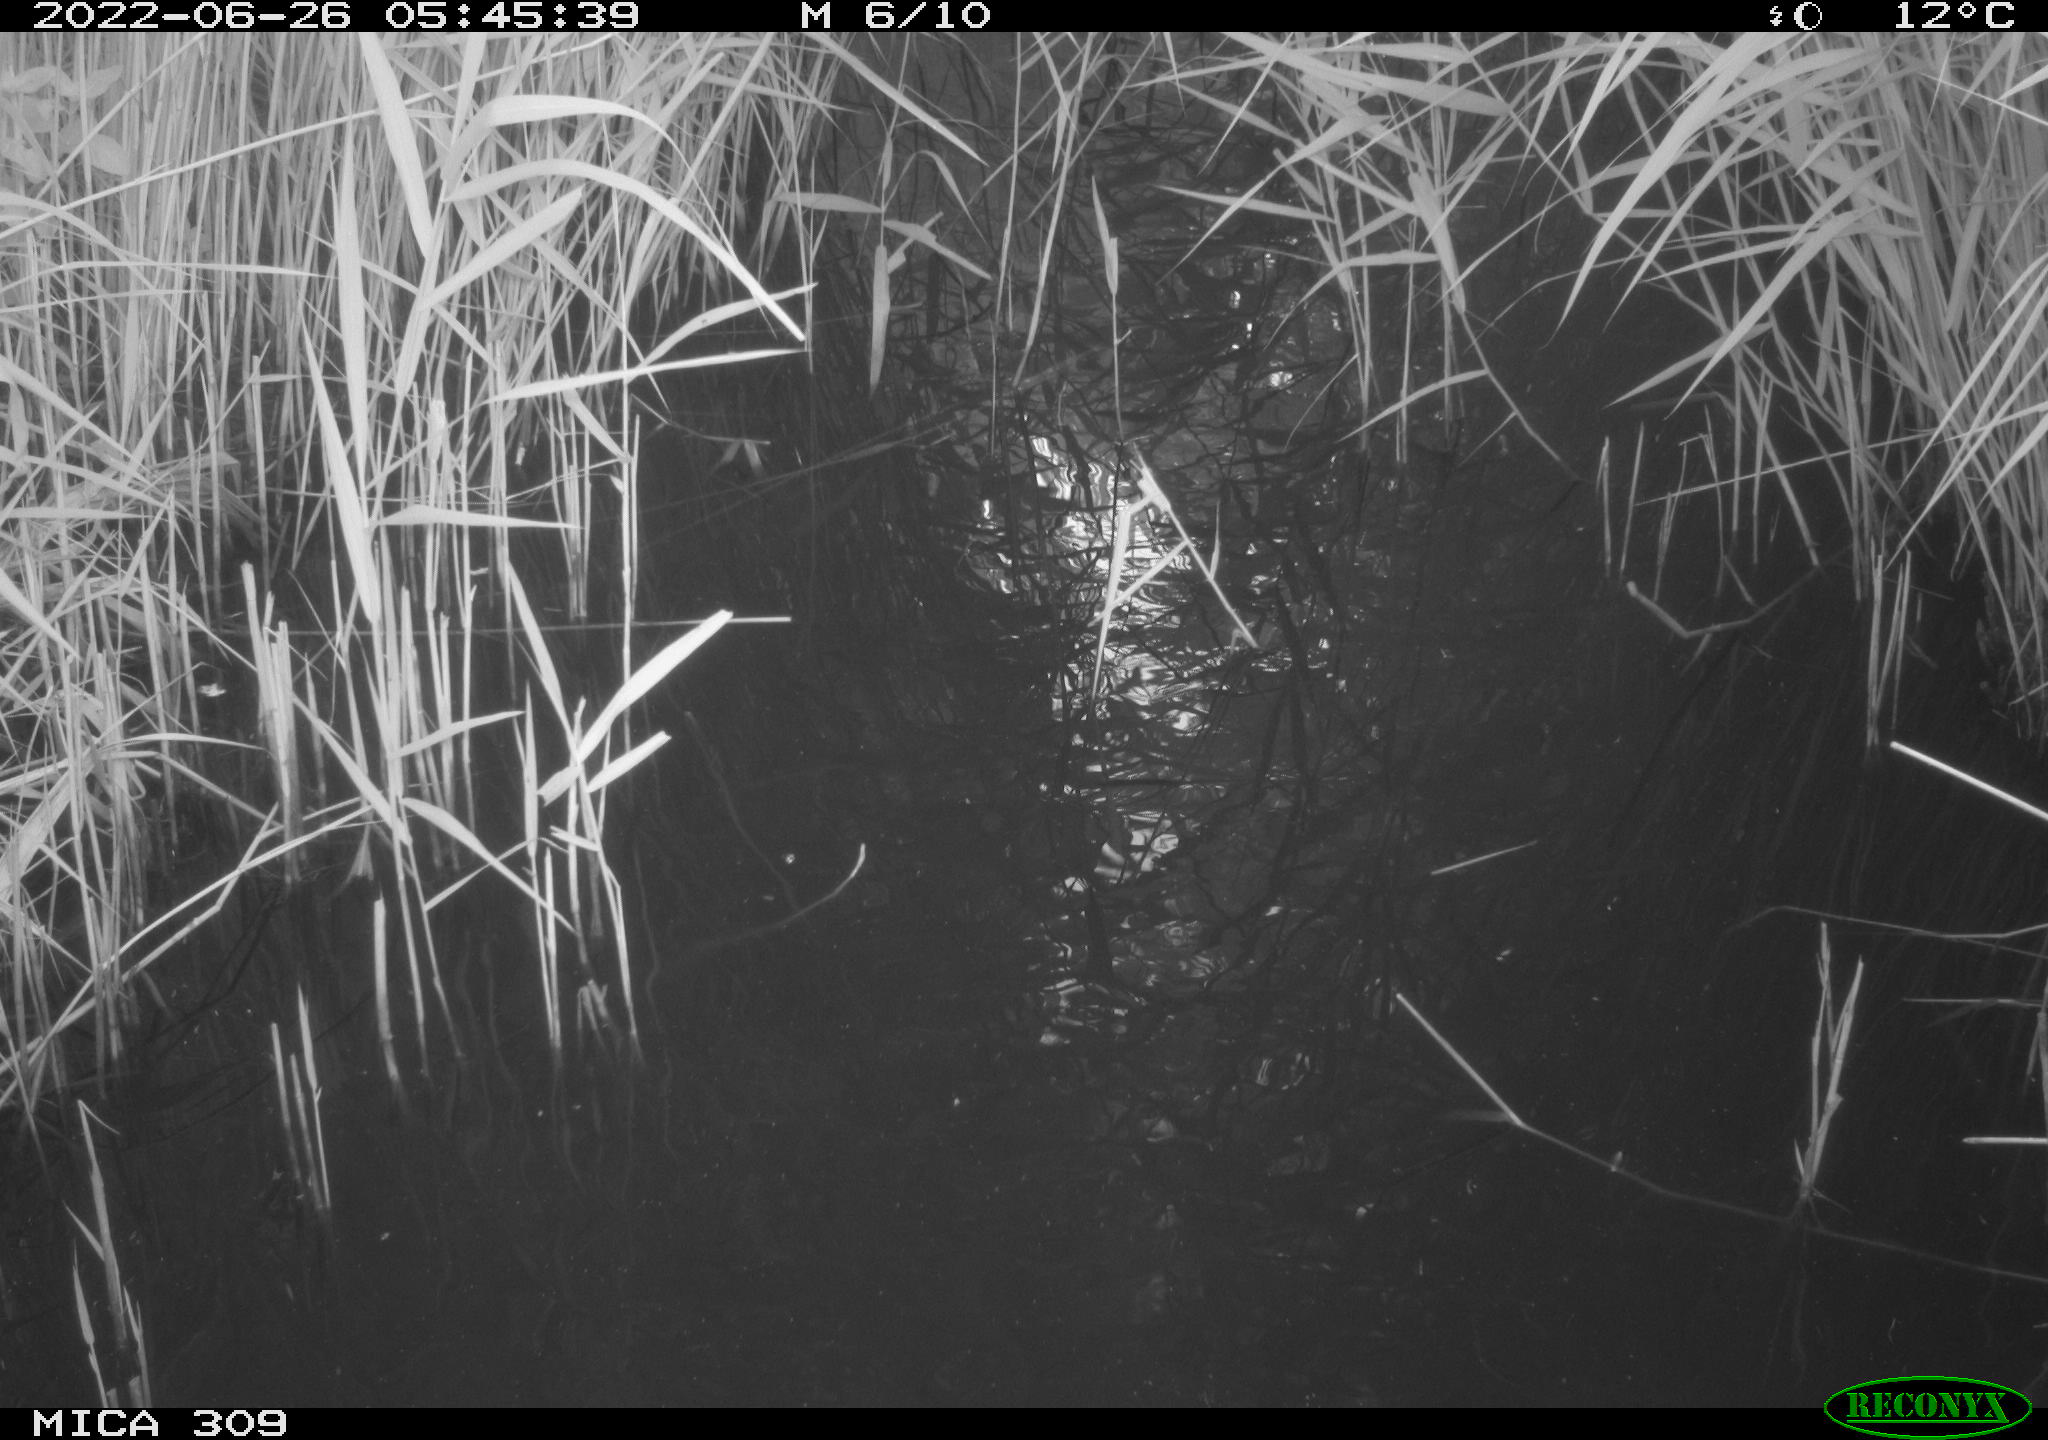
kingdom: Animalia
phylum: Chordata
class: Aves
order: Anseriformes
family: Anatidae
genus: Anas
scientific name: Anas platyrhynchos
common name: Mallard
